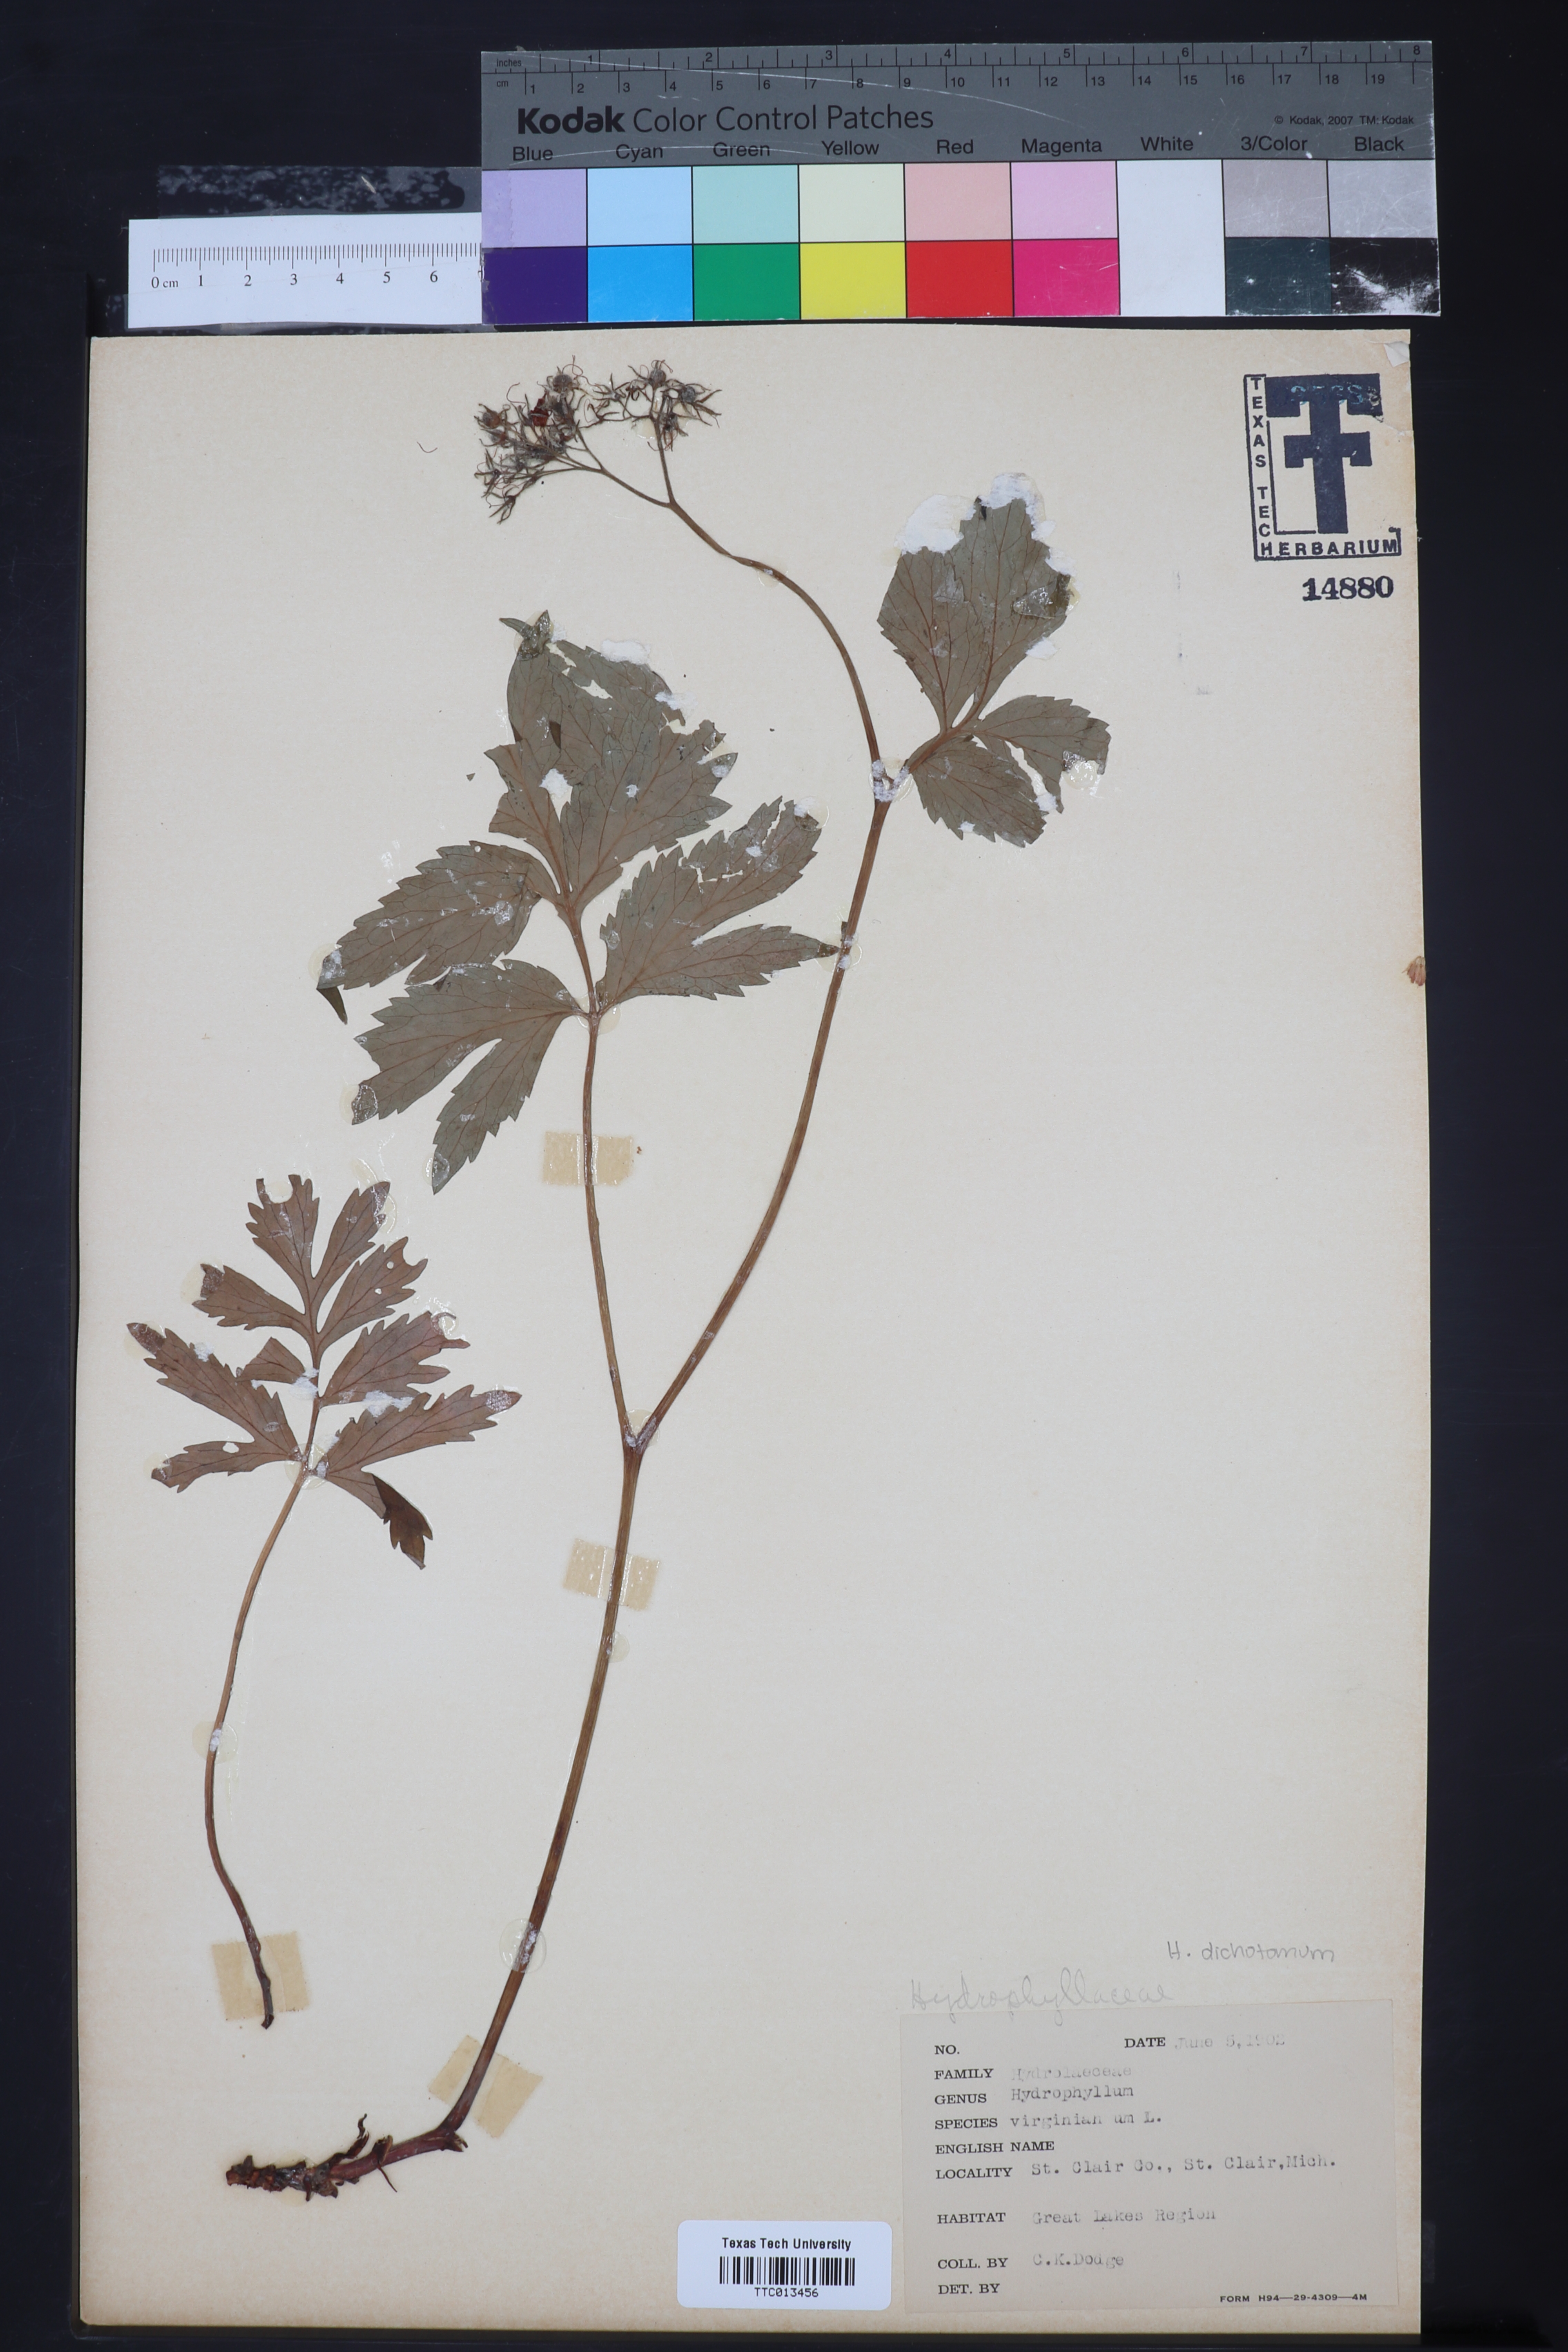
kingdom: Plantae
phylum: Tracheophyta
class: Magnoliopsida
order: Boraginales
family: Hydrophyllaceae
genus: Hydrophyllum
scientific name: Hydrophyllum virginianum
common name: Virginia waterleaf
